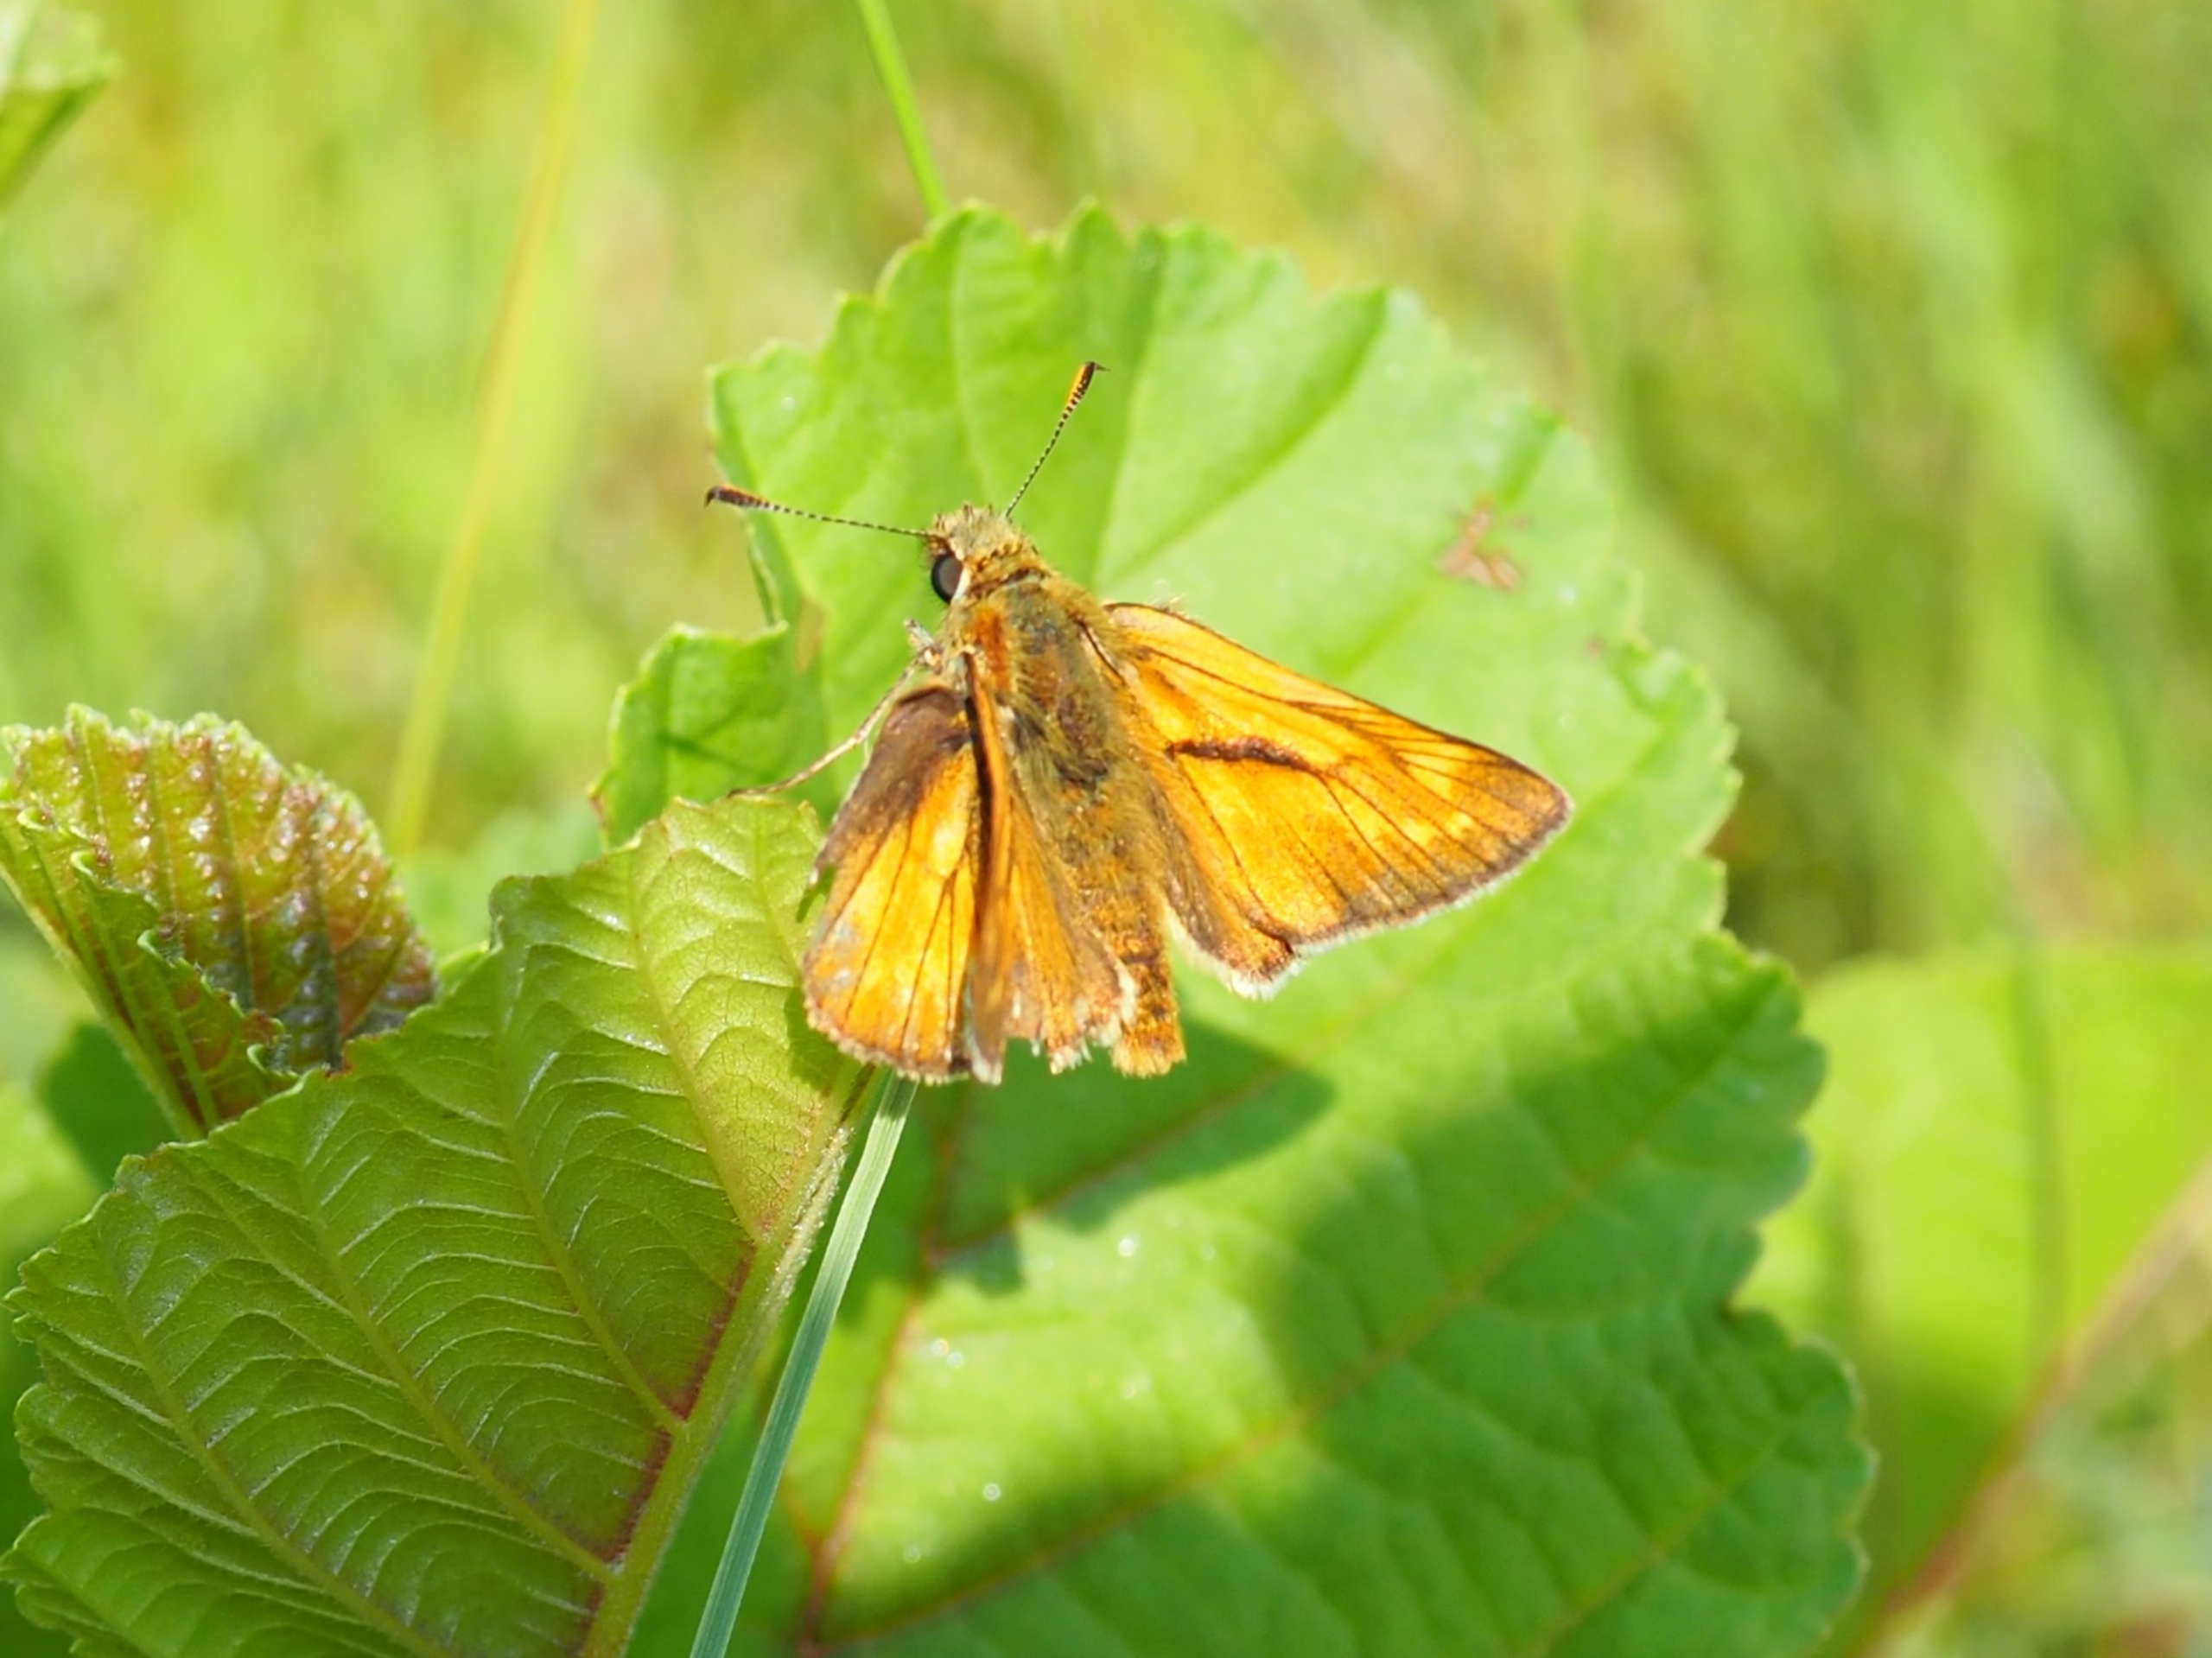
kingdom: Animalia
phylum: Arthropoda
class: Insecta
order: Lepidoptera
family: Hesperiidae
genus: Ochlodes
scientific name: Ochlodes venata
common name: Stor bredpande
